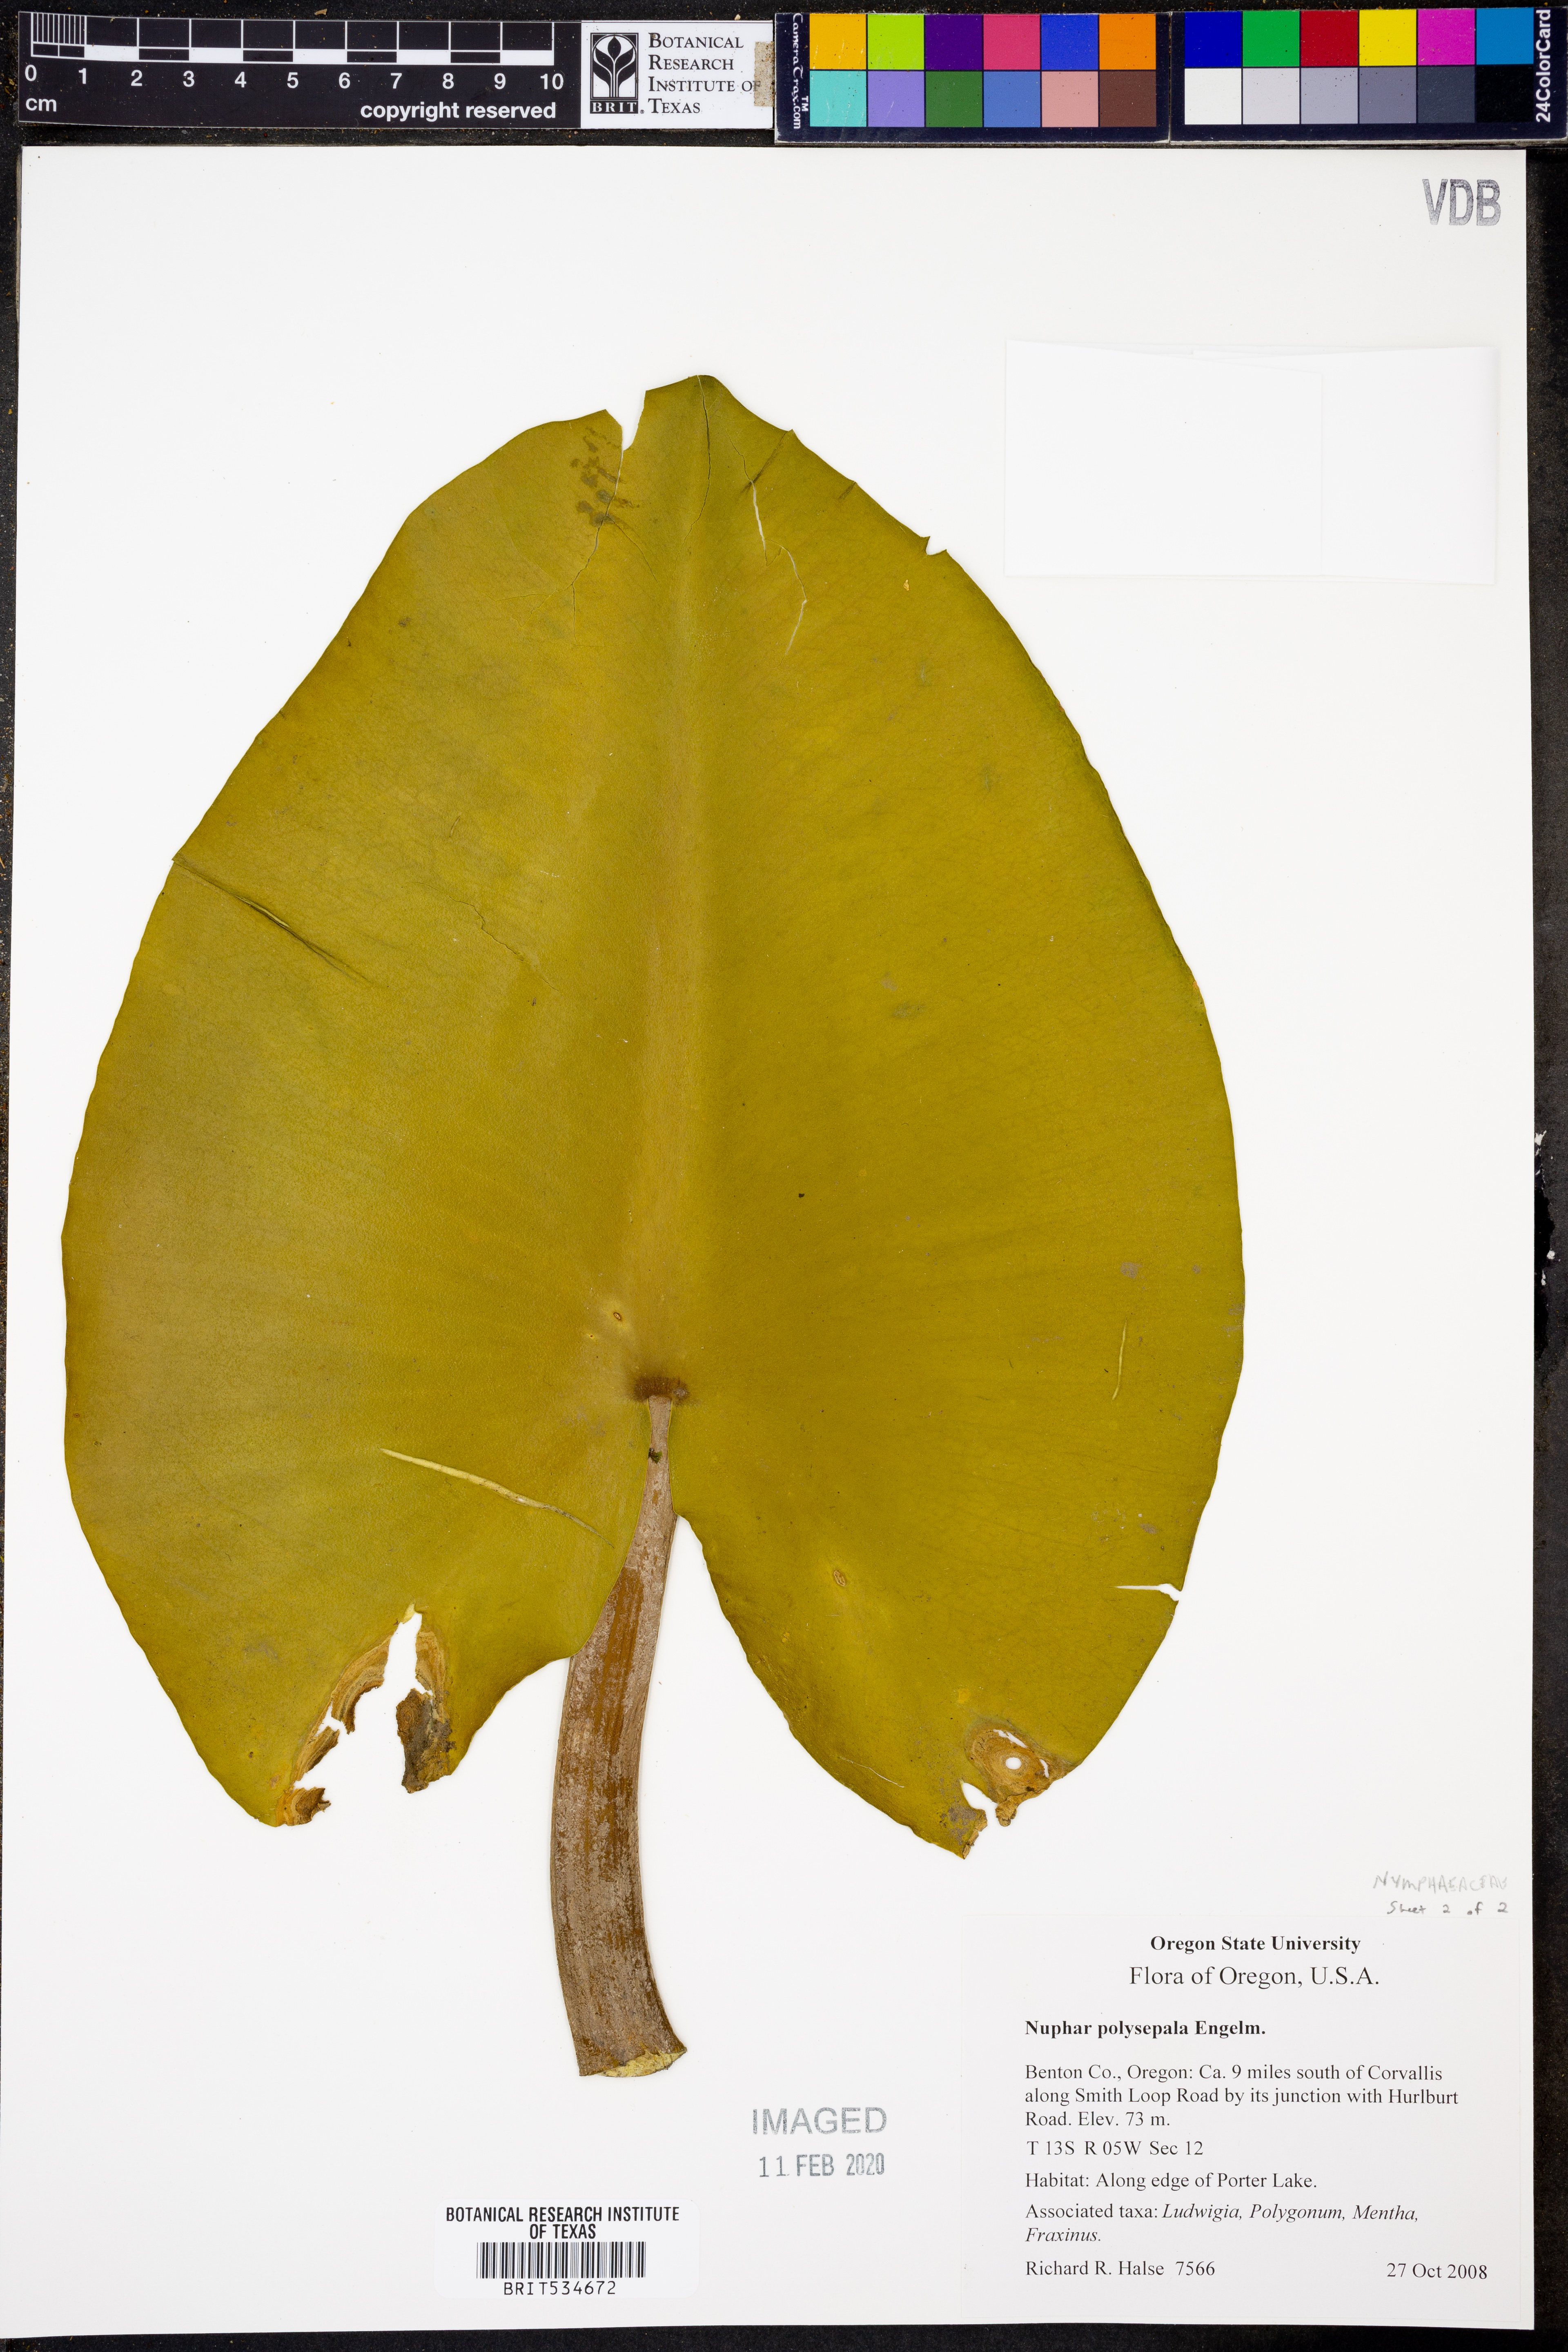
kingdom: Plantae
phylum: Tracheophyta
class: Magnoliopsida
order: Nymphaeales
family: Nymphaeaceae
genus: Nuphar
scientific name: Nuphar polysepala
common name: Rocky mountain cow-lily
